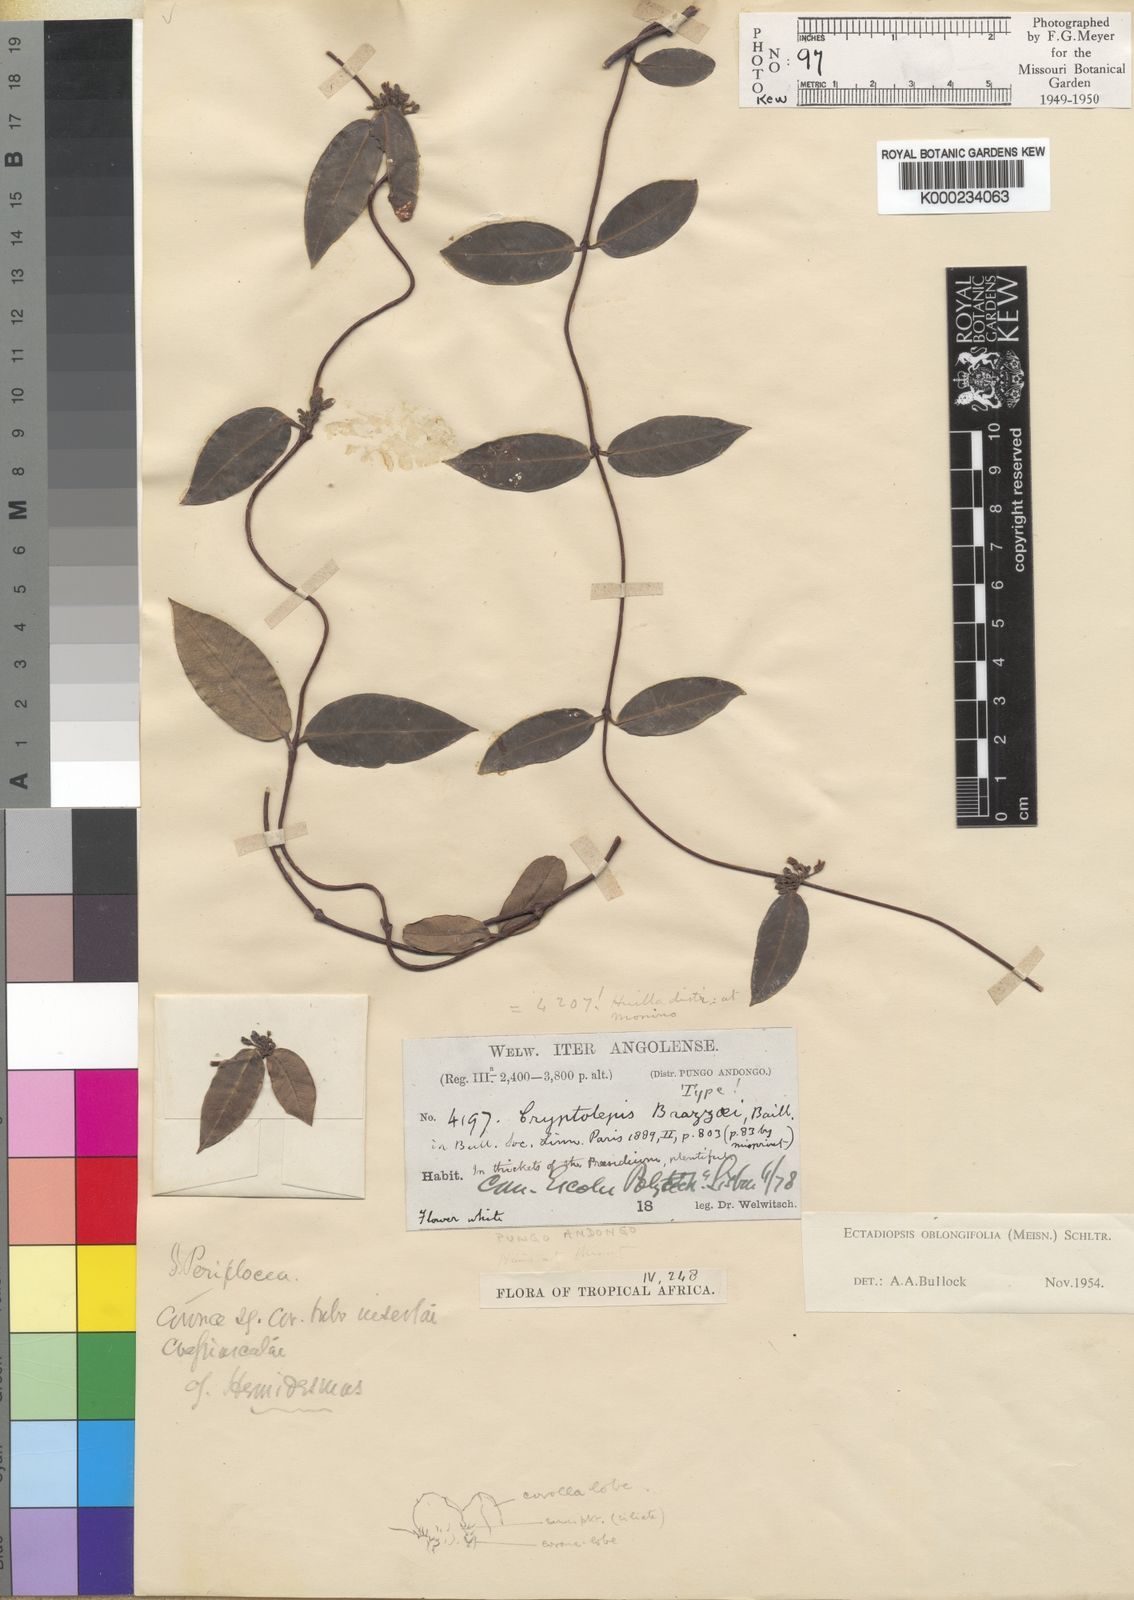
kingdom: Plantae
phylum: Tracheophyta
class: Magnoliopsida
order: Gentianales
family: Apocynaceae
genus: Cryptolepis
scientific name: Cryptolepis oblongifolia
